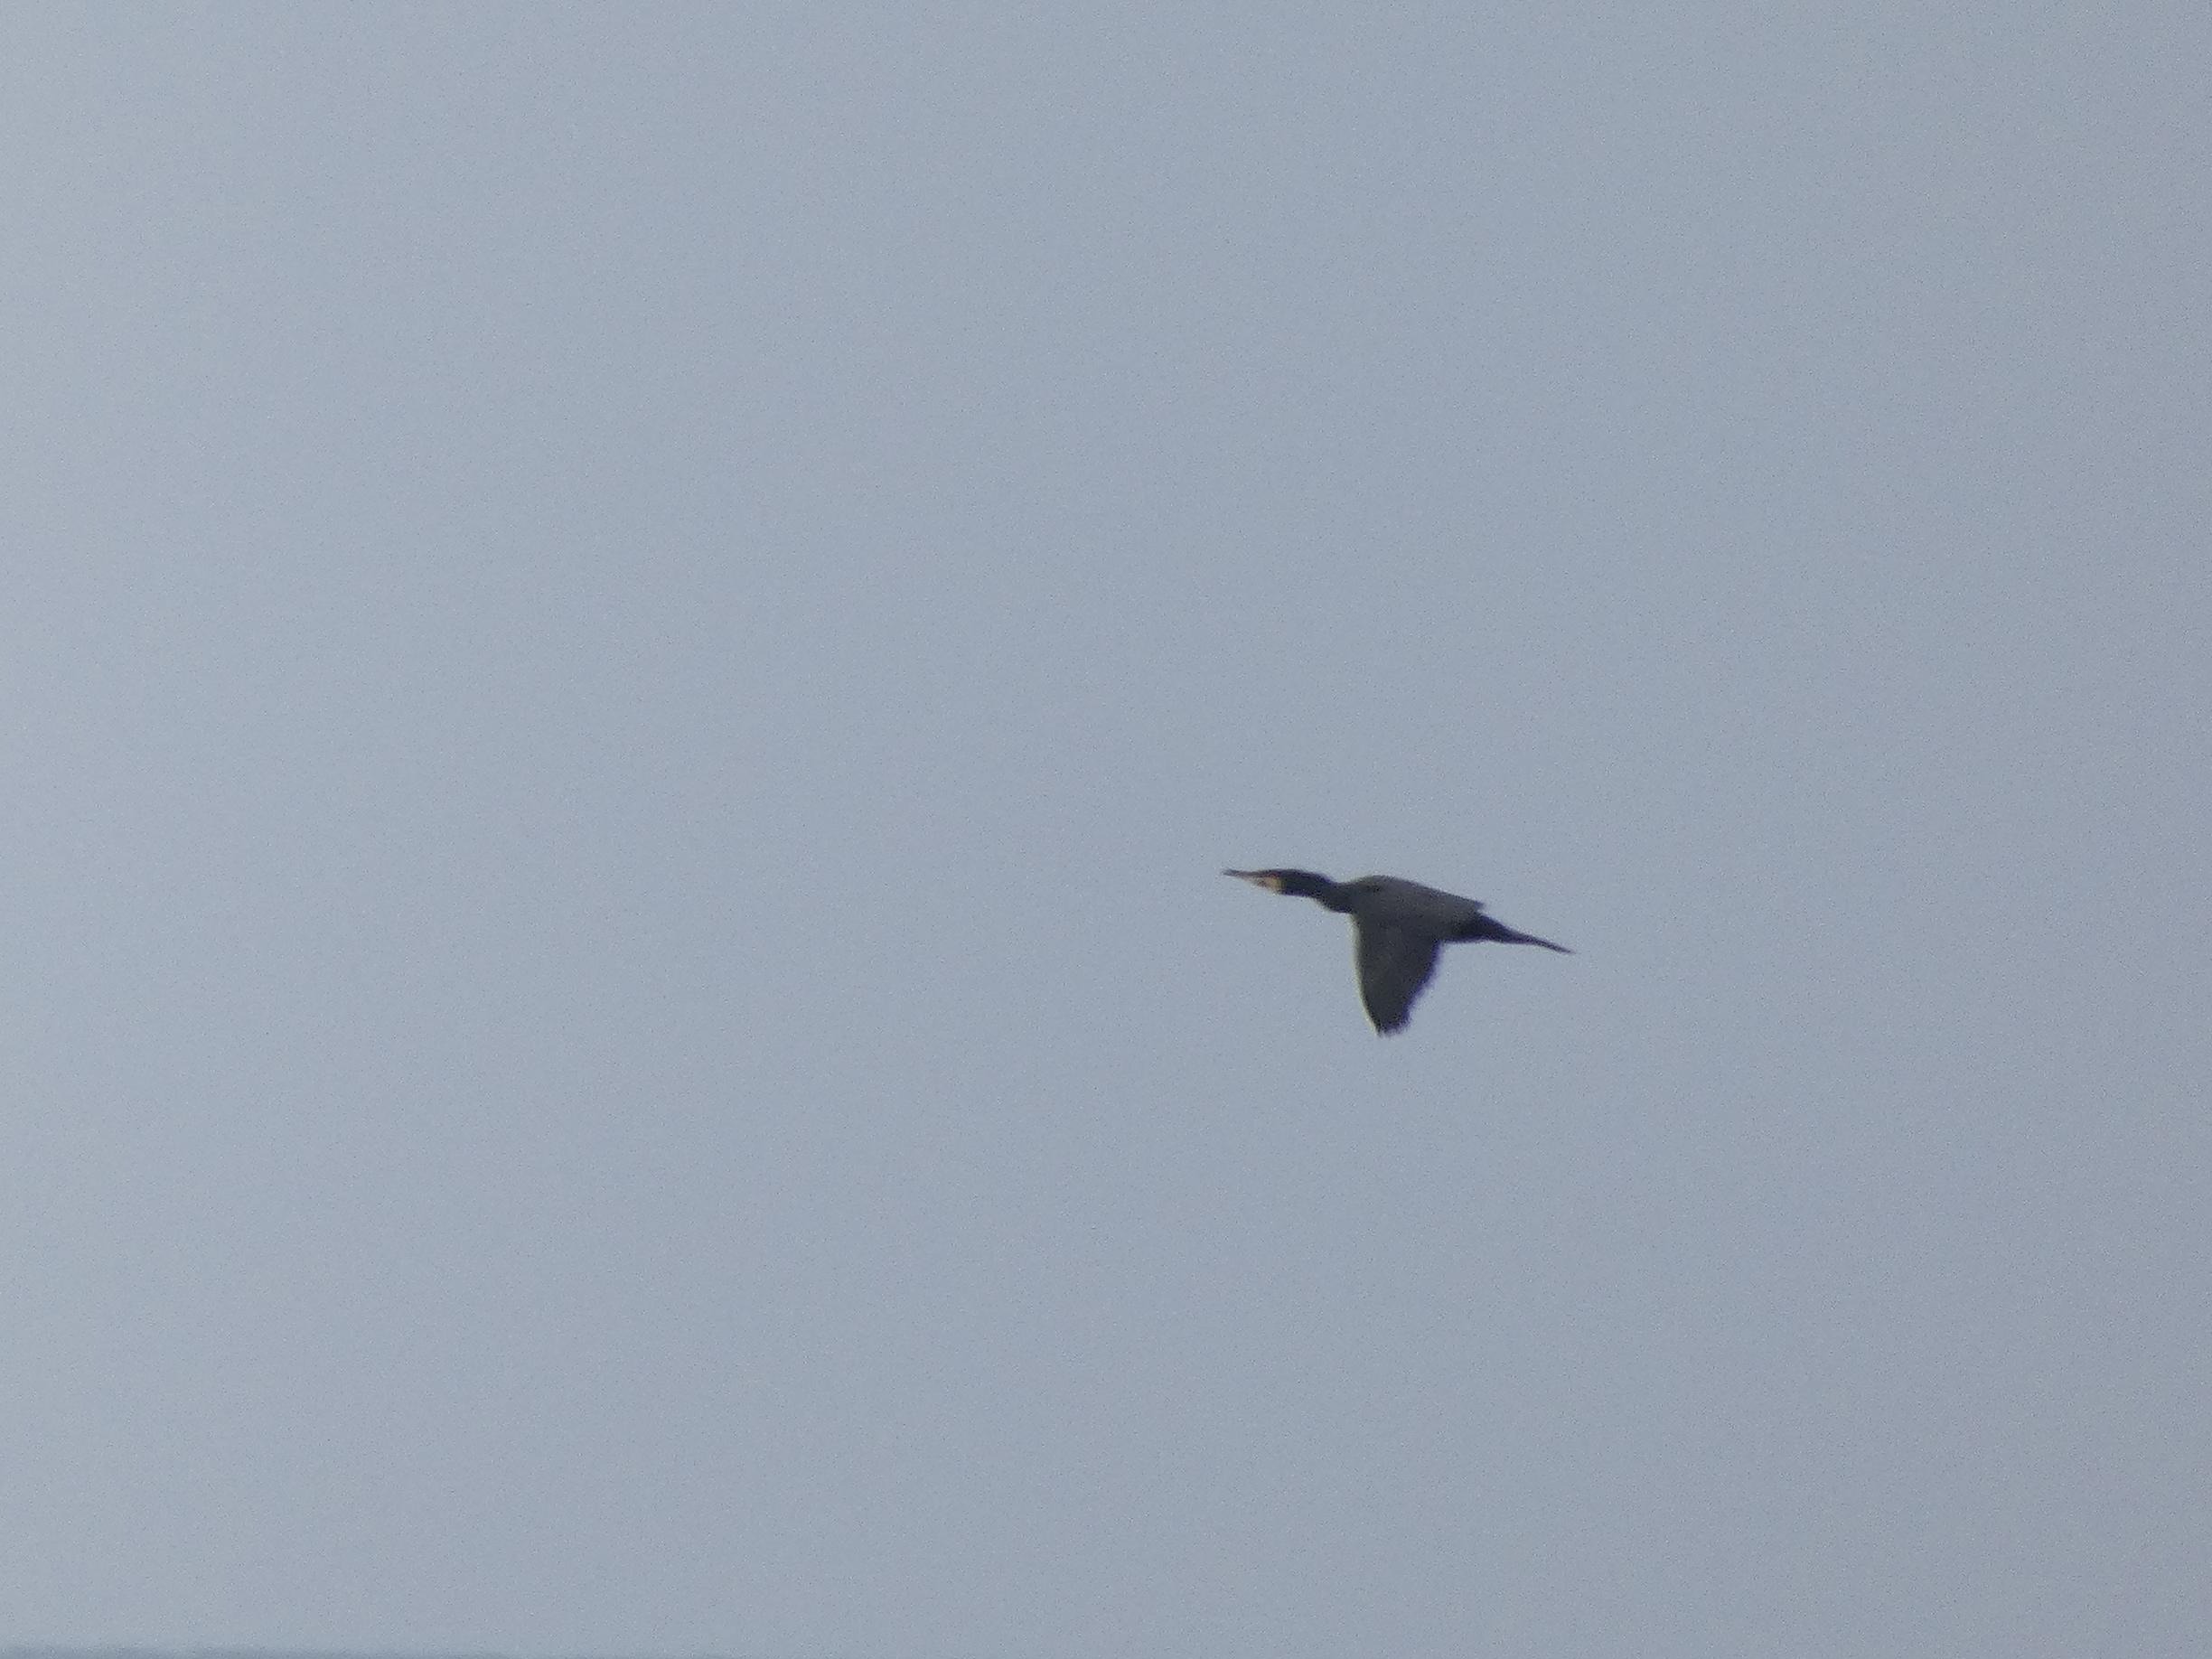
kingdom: Animalia
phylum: Chordata
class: Aves
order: Suliformes
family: Phalacrocoracidae
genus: Phalacrocorax
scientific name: Phalacrocorax carbo
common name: Skarv
